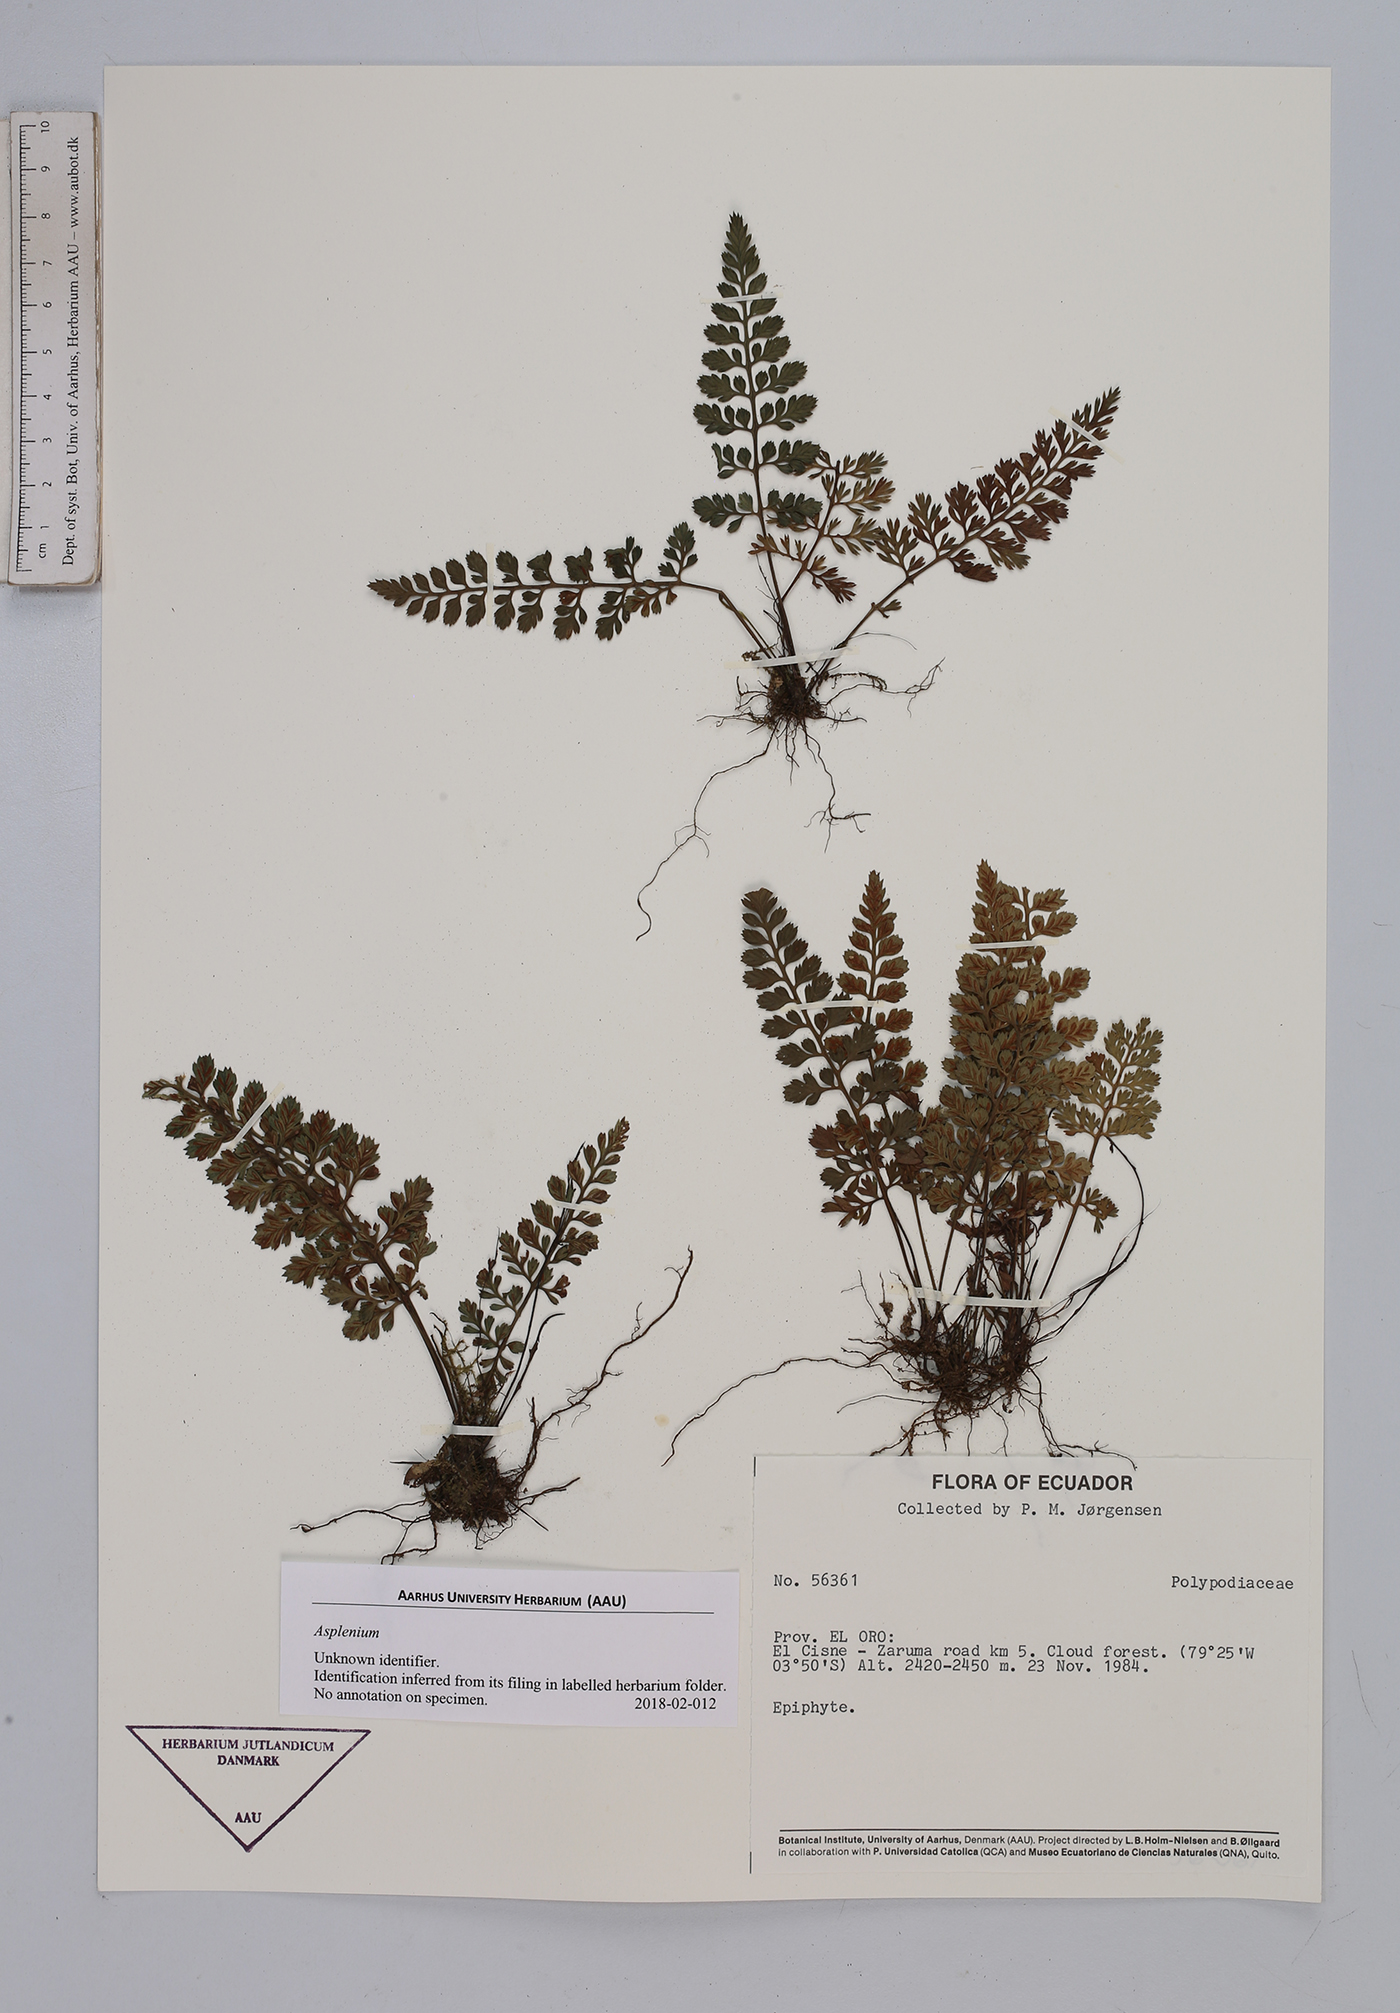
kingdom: Plantae
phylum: Tracheophyta
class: Polypodiopsida
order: Polypodiales
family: Aspleniaceae
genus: Asplenium
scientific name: Asplenium
